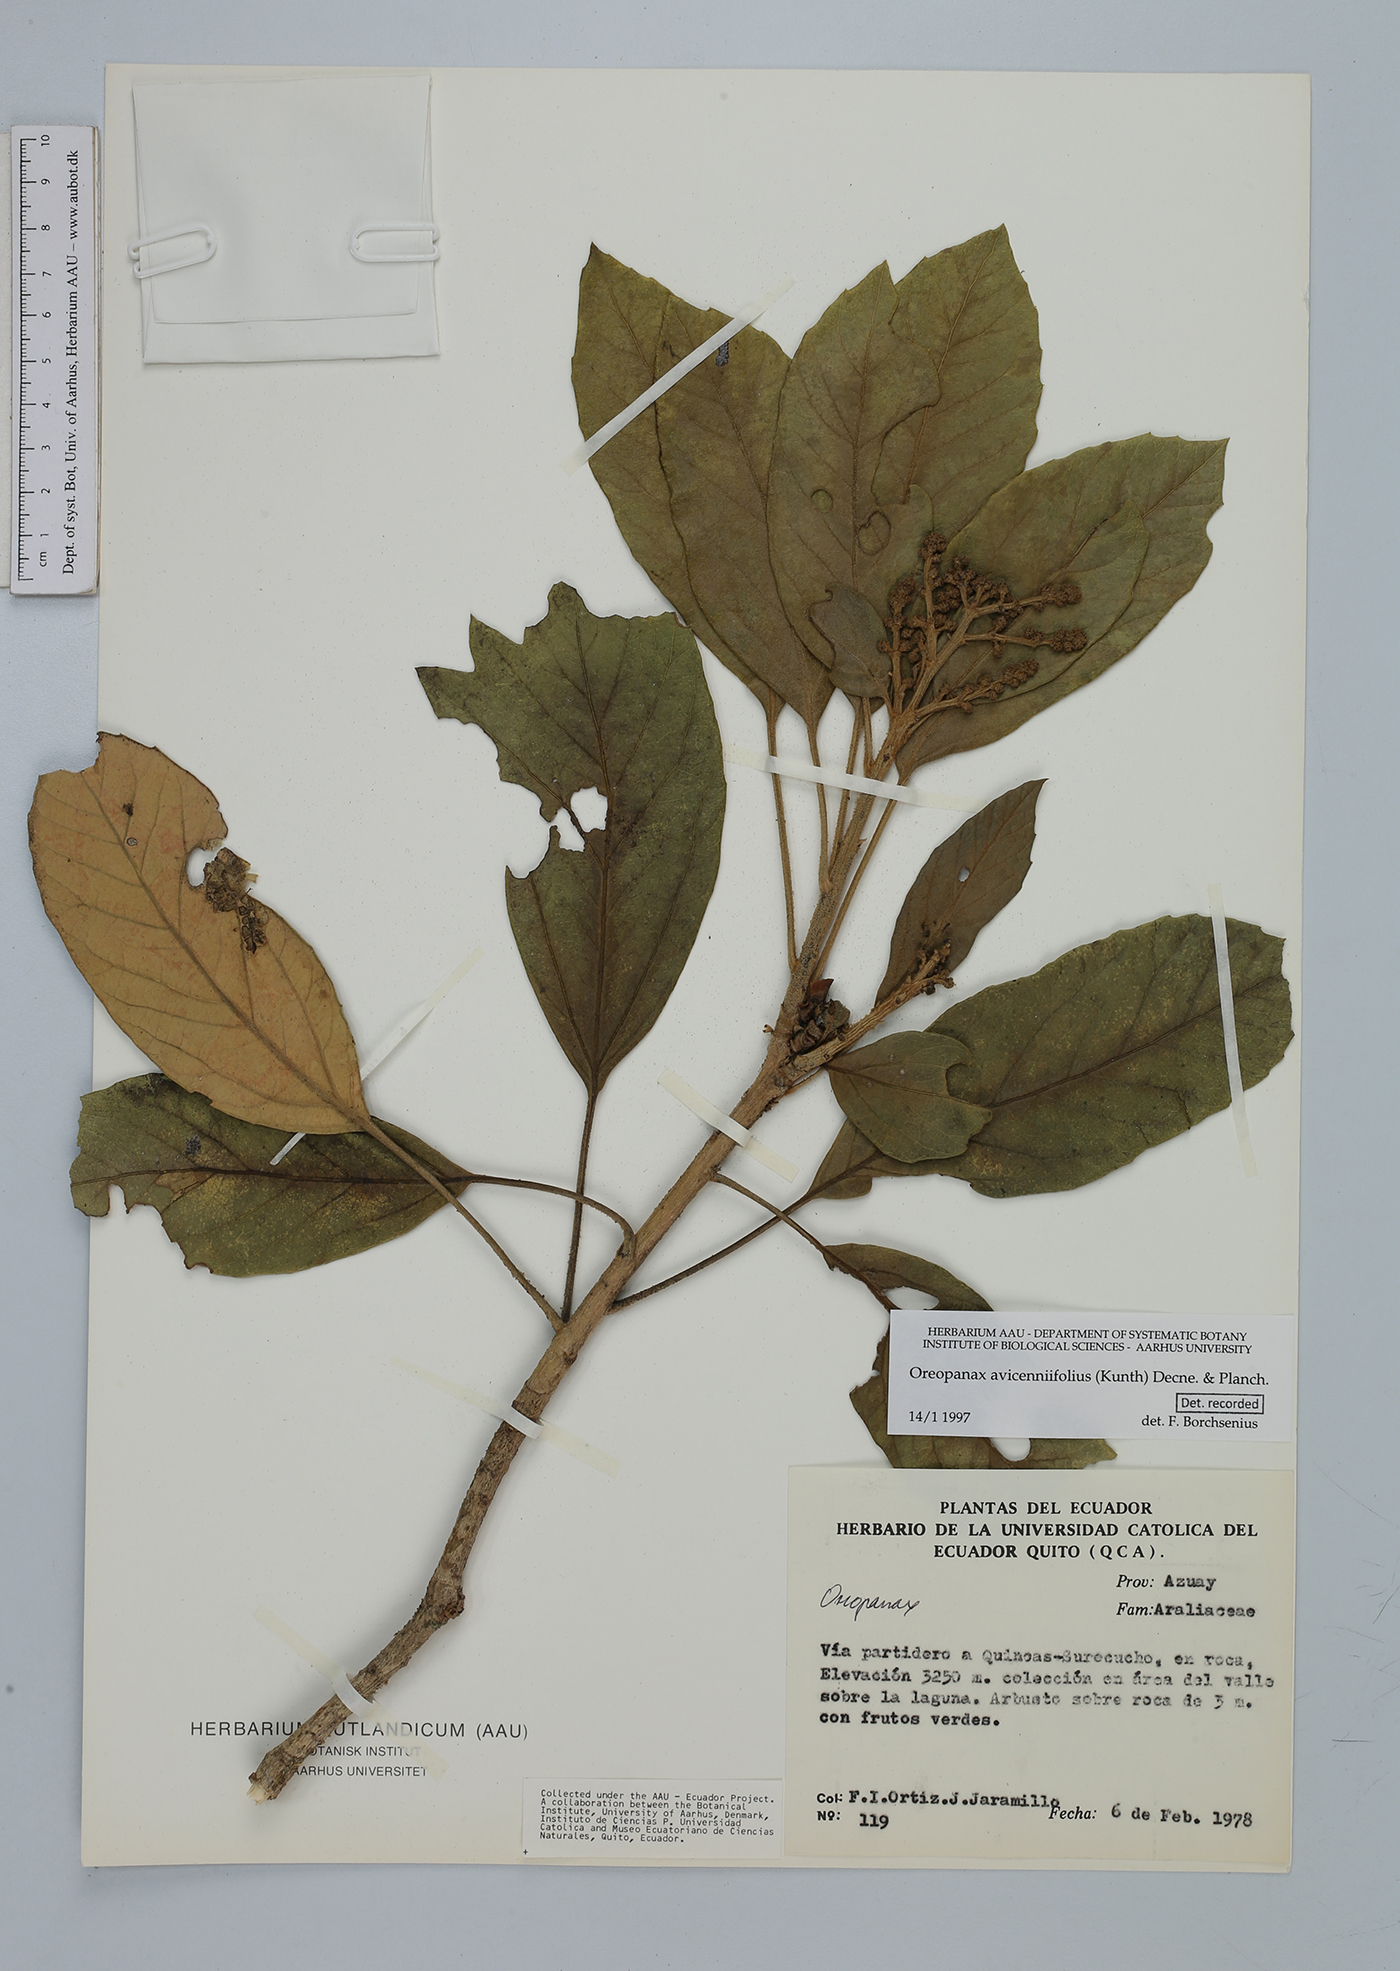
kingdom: Plantae
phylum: Tracheophyta
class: Magnoliopsida
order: Apiales
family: Araliaceae
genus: Oreopanax
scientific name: Oreopanax avicenniifolius
